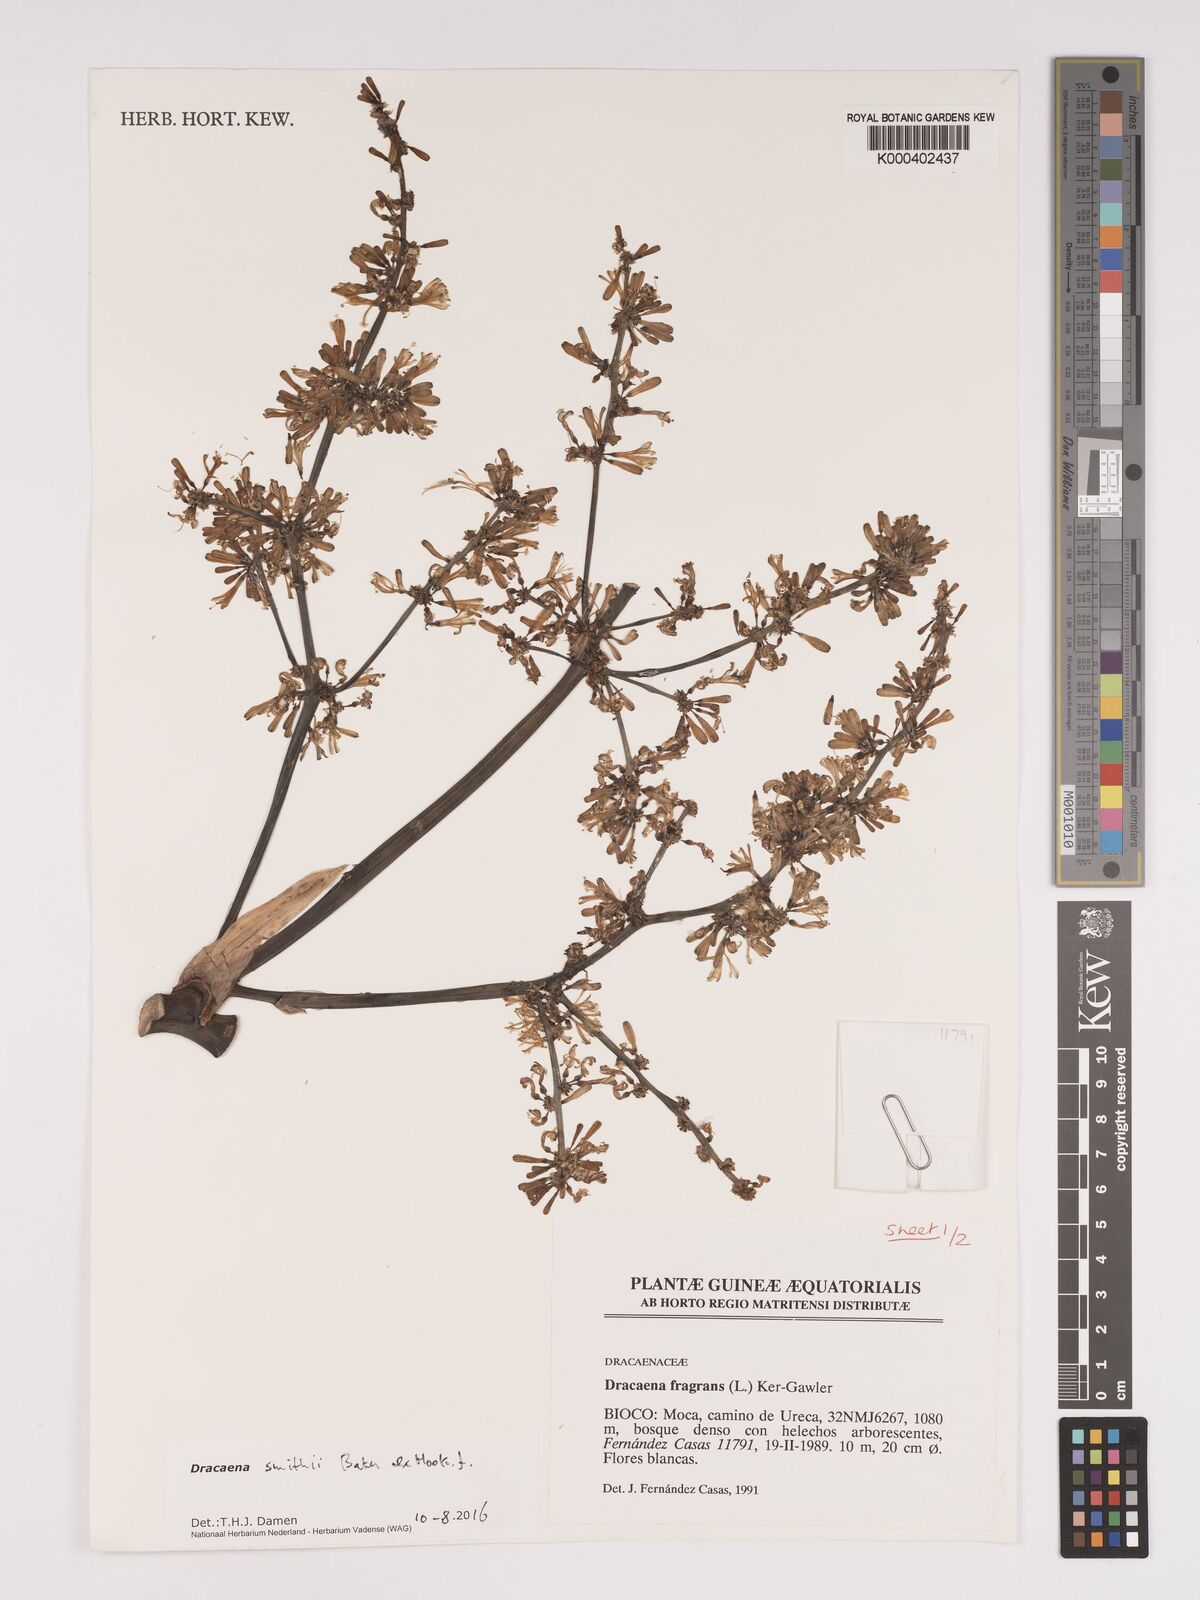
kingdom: Plantae
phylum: Tracheophyta
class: Liliopsida
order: Asparagales
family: Asparagaceae
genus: Dracaena
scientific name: Dracaena fragrans
